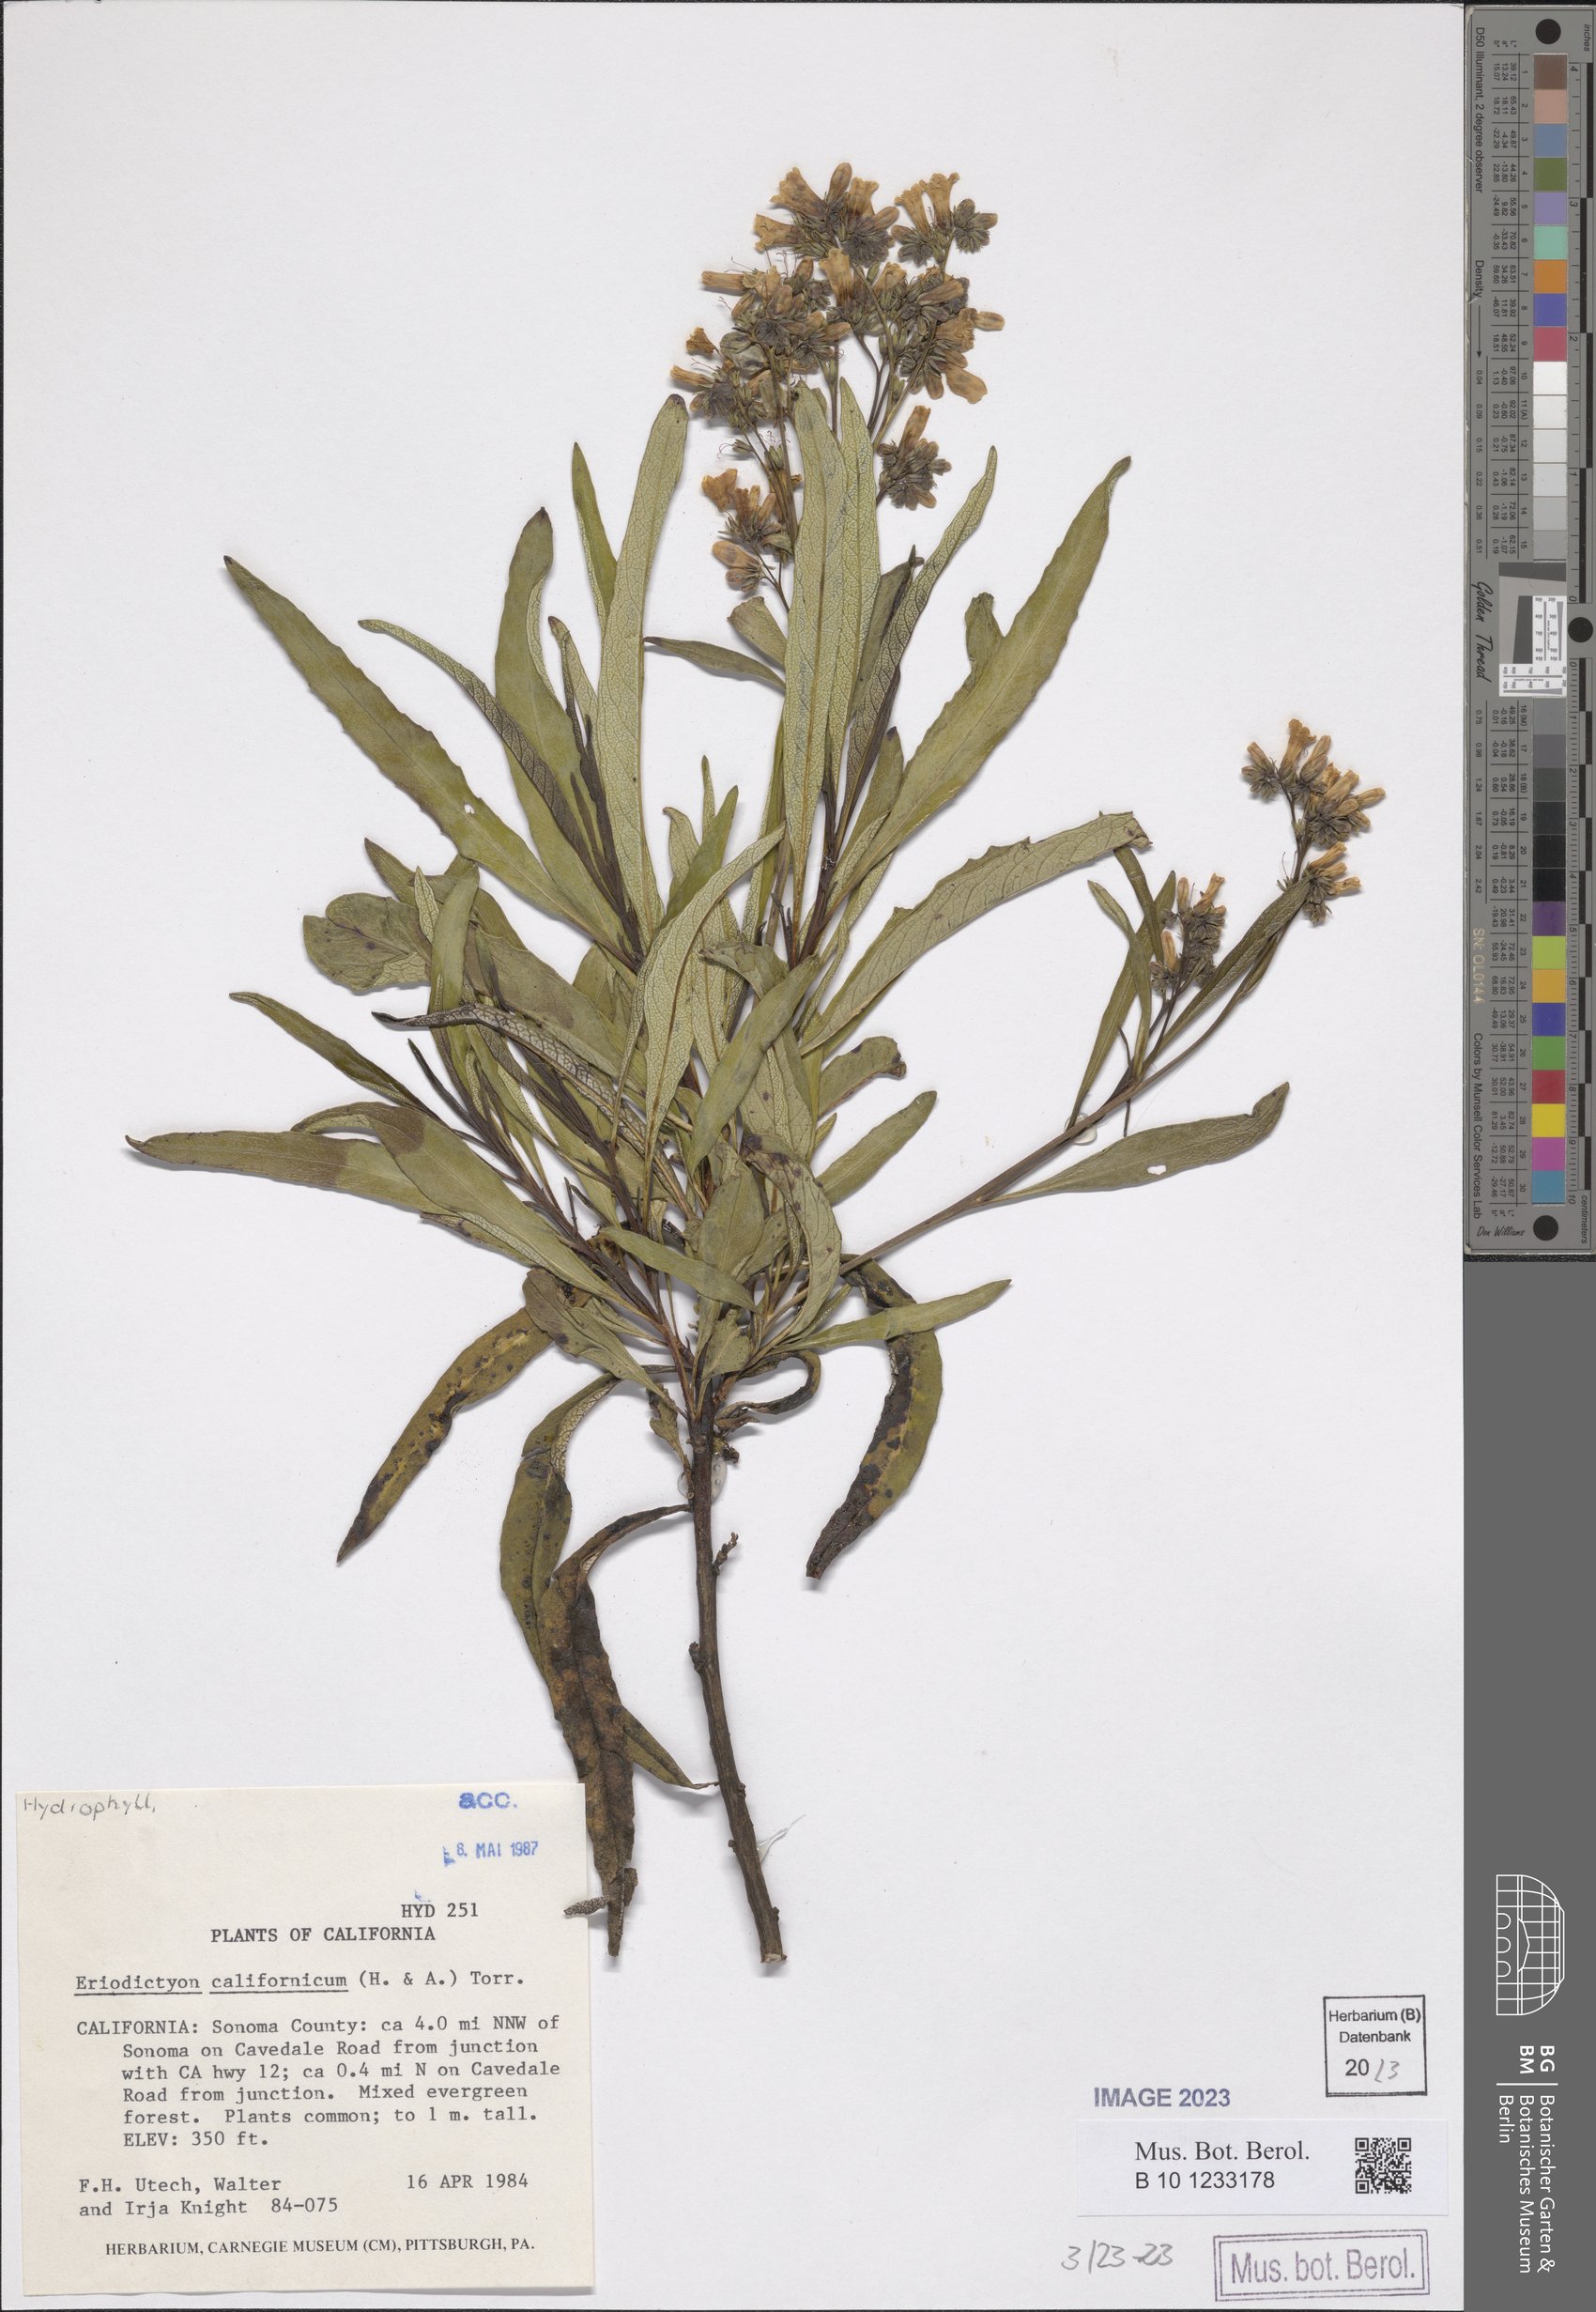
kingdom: Plantae
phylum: Tracheophyta
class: Magnoliopsida
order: Boraginales
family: Namaceae
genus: Eriodictyon
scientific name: Eriodictyon crassifolium
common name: Thick-leaf yerba-santa
